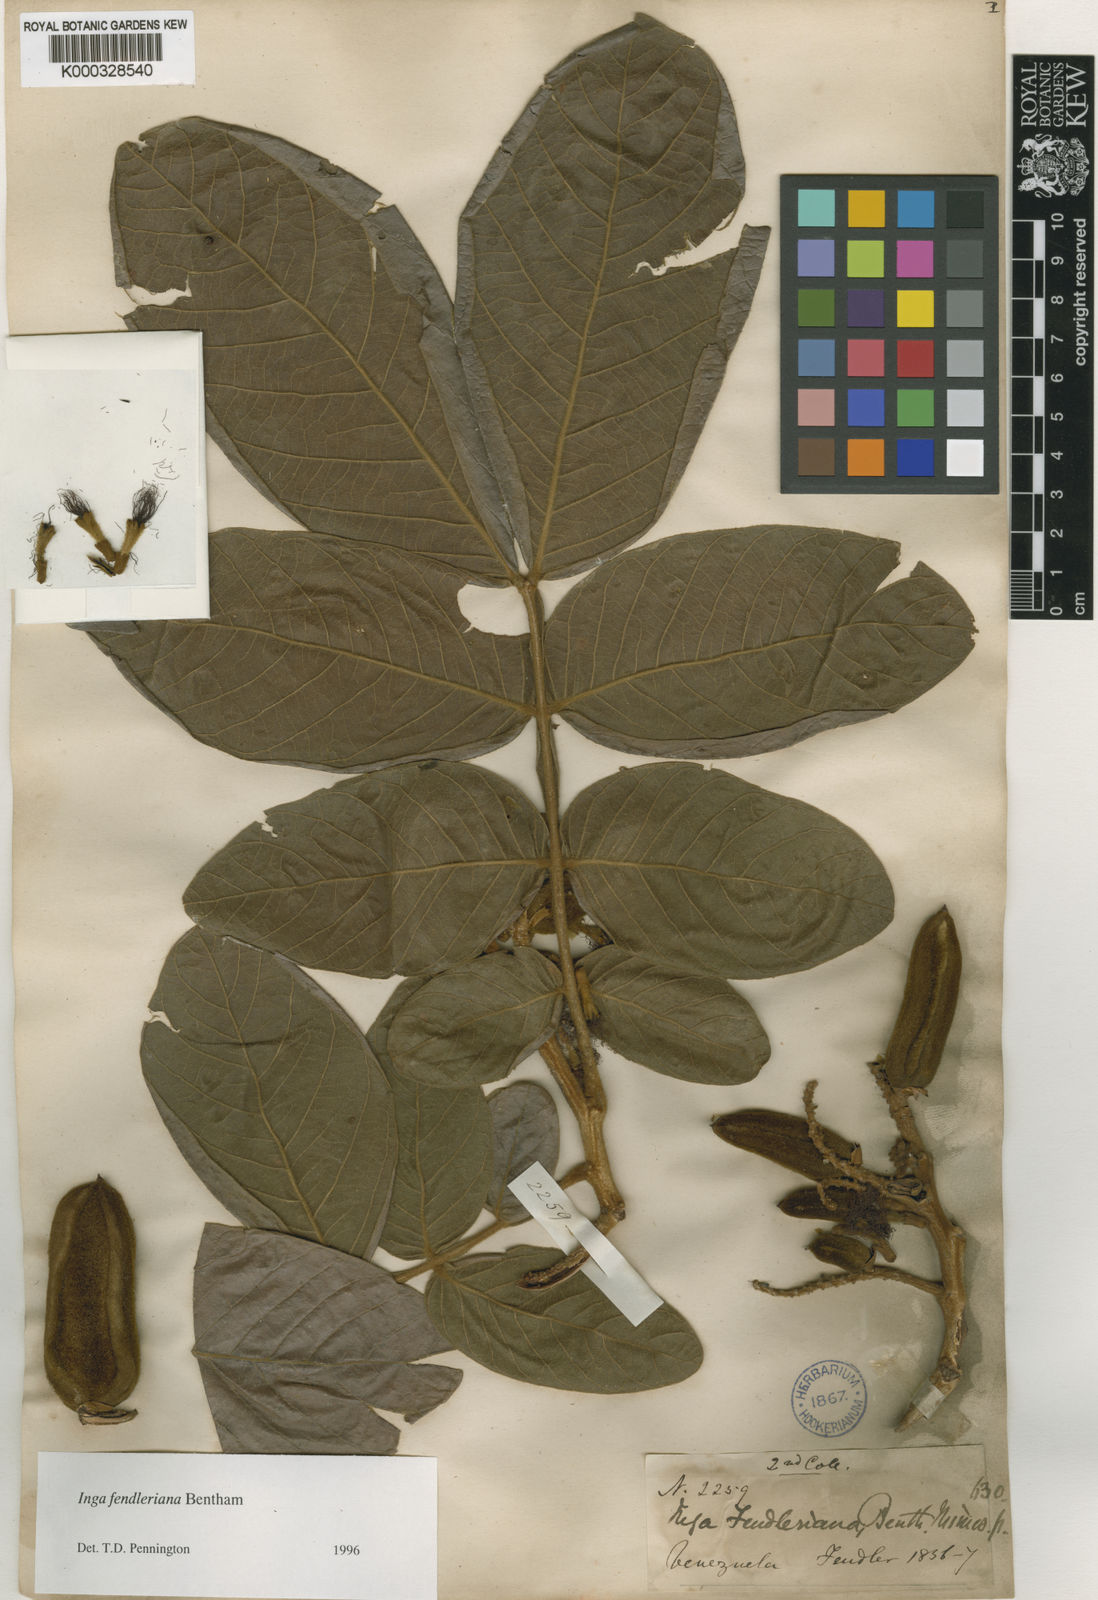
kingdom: Plantae
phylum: Tracheophyta
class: Magnoliopsida
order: Fabales
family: Fabaceae
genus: Inga
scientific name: Inga fendleriana
